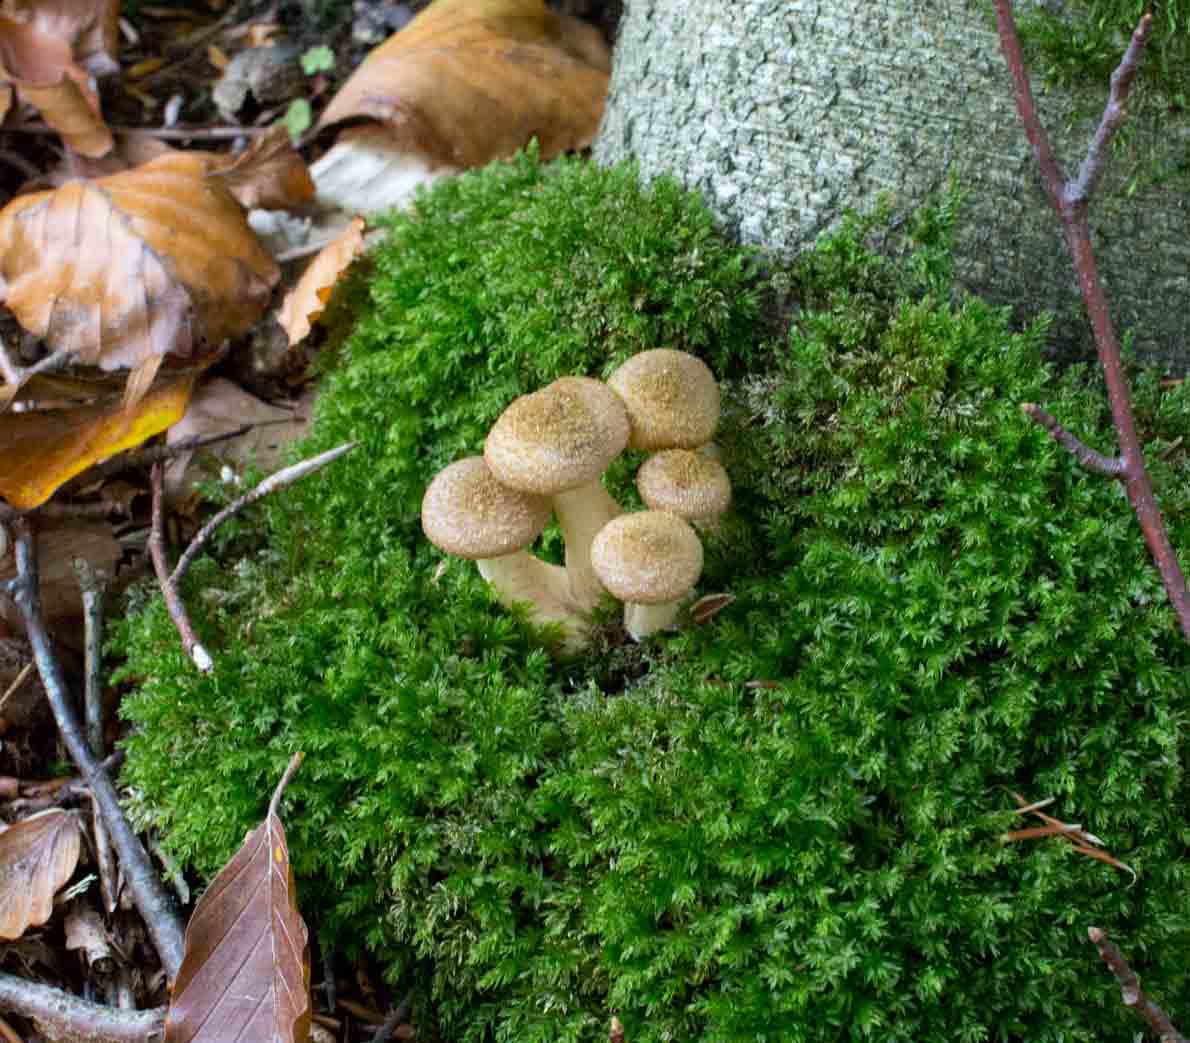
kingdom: Fungi
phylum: Basidiomycota
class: Agaricomycetes
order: Agaricales
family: Physalacriaceae
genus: Armillaria
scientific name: Armillaria lutea
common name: køllestokket honningsvamp
